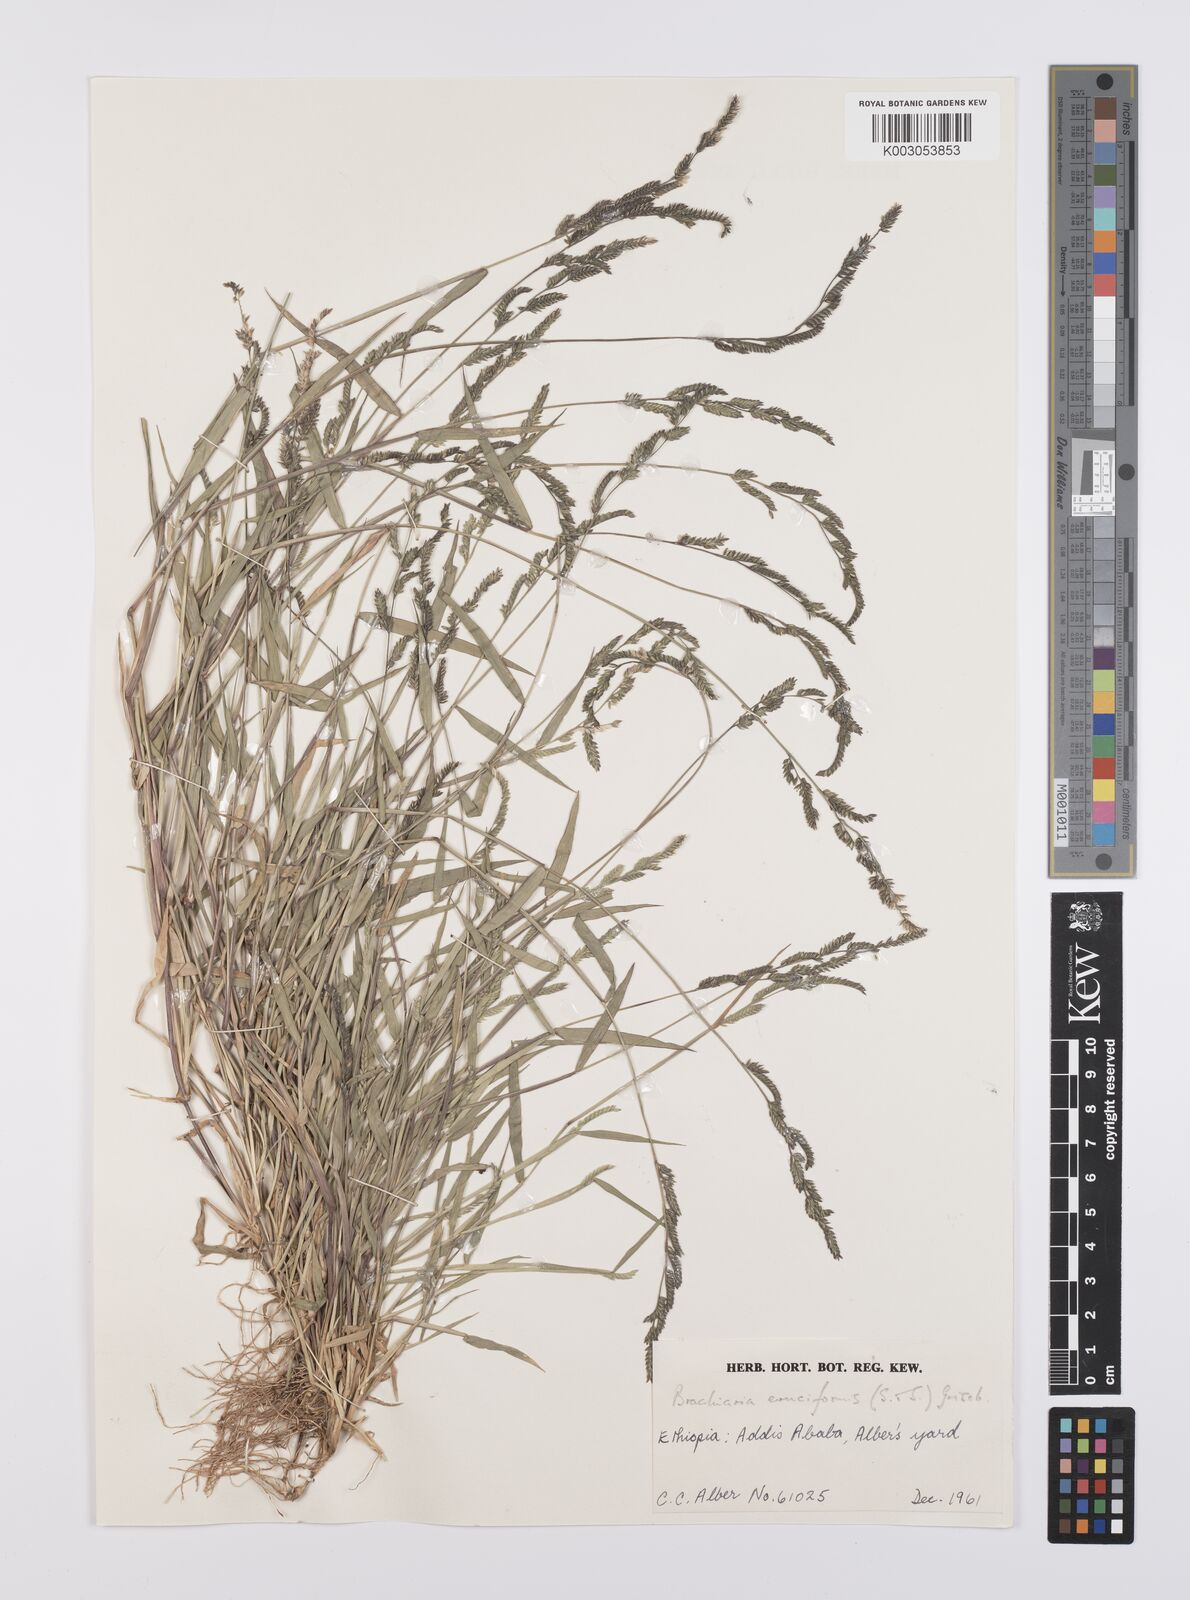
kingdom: Plantae
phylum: Tracheophyta
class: Liliopsida
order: Poales
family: Poaceae
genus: Moorochloa
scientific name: Moorochloa eruciformis
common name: Sweet signalgrass
